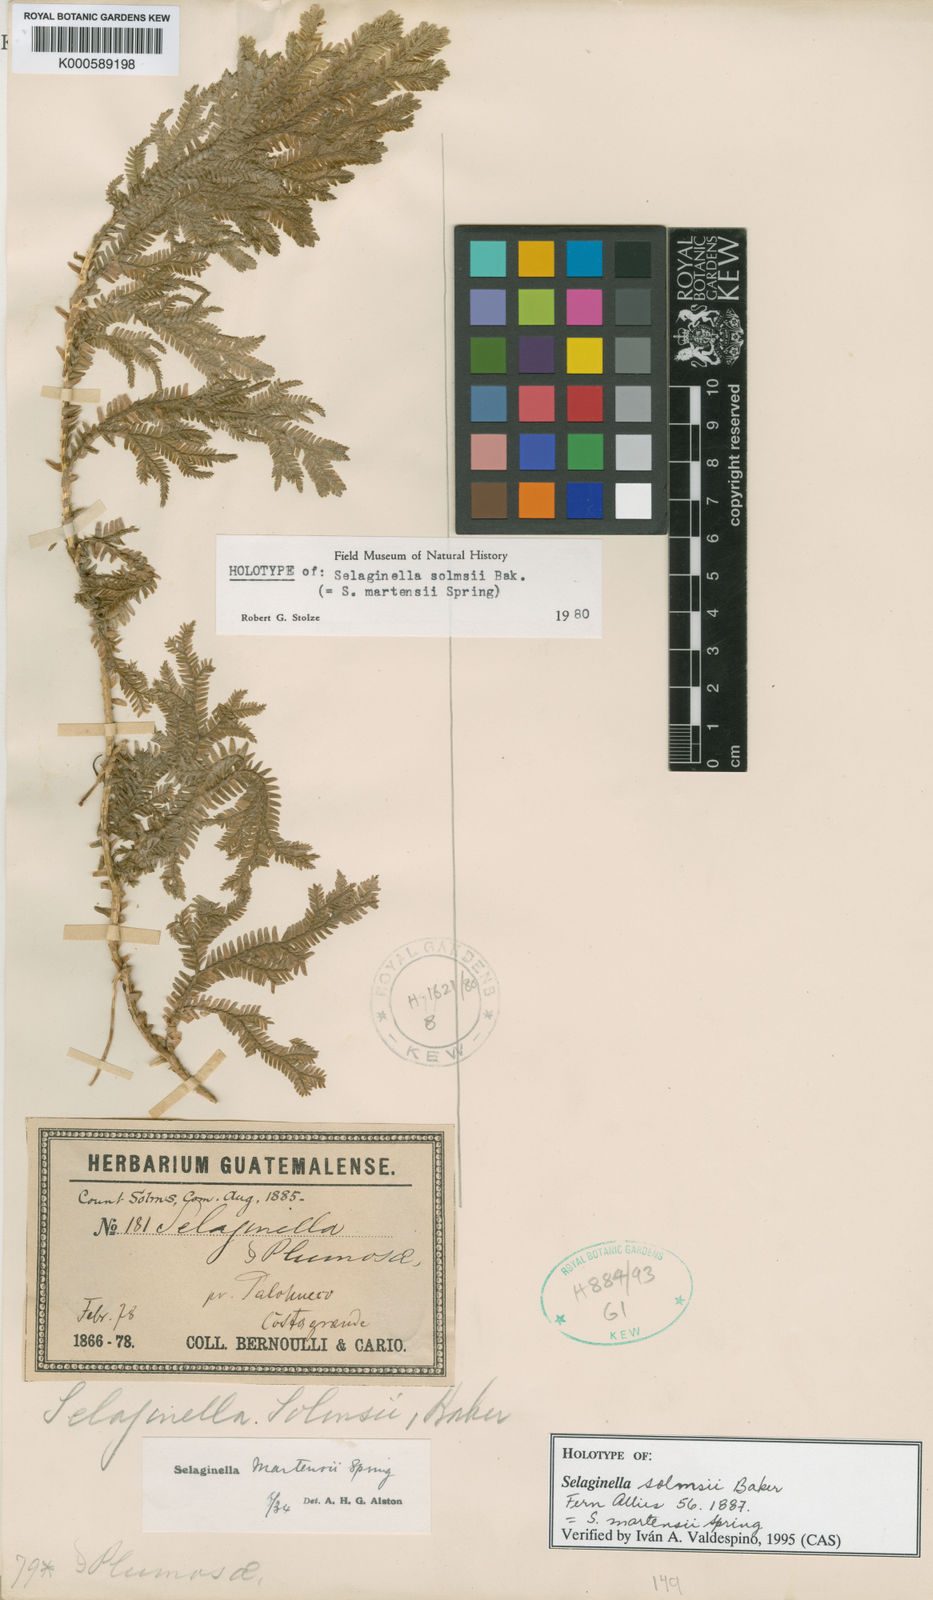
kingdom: Plantae
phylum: Tracheophyta
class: Lycopodiopsida
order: Selaginellales
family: Selaginellaceae
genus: Selaginella
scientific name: Selaginella martensii
